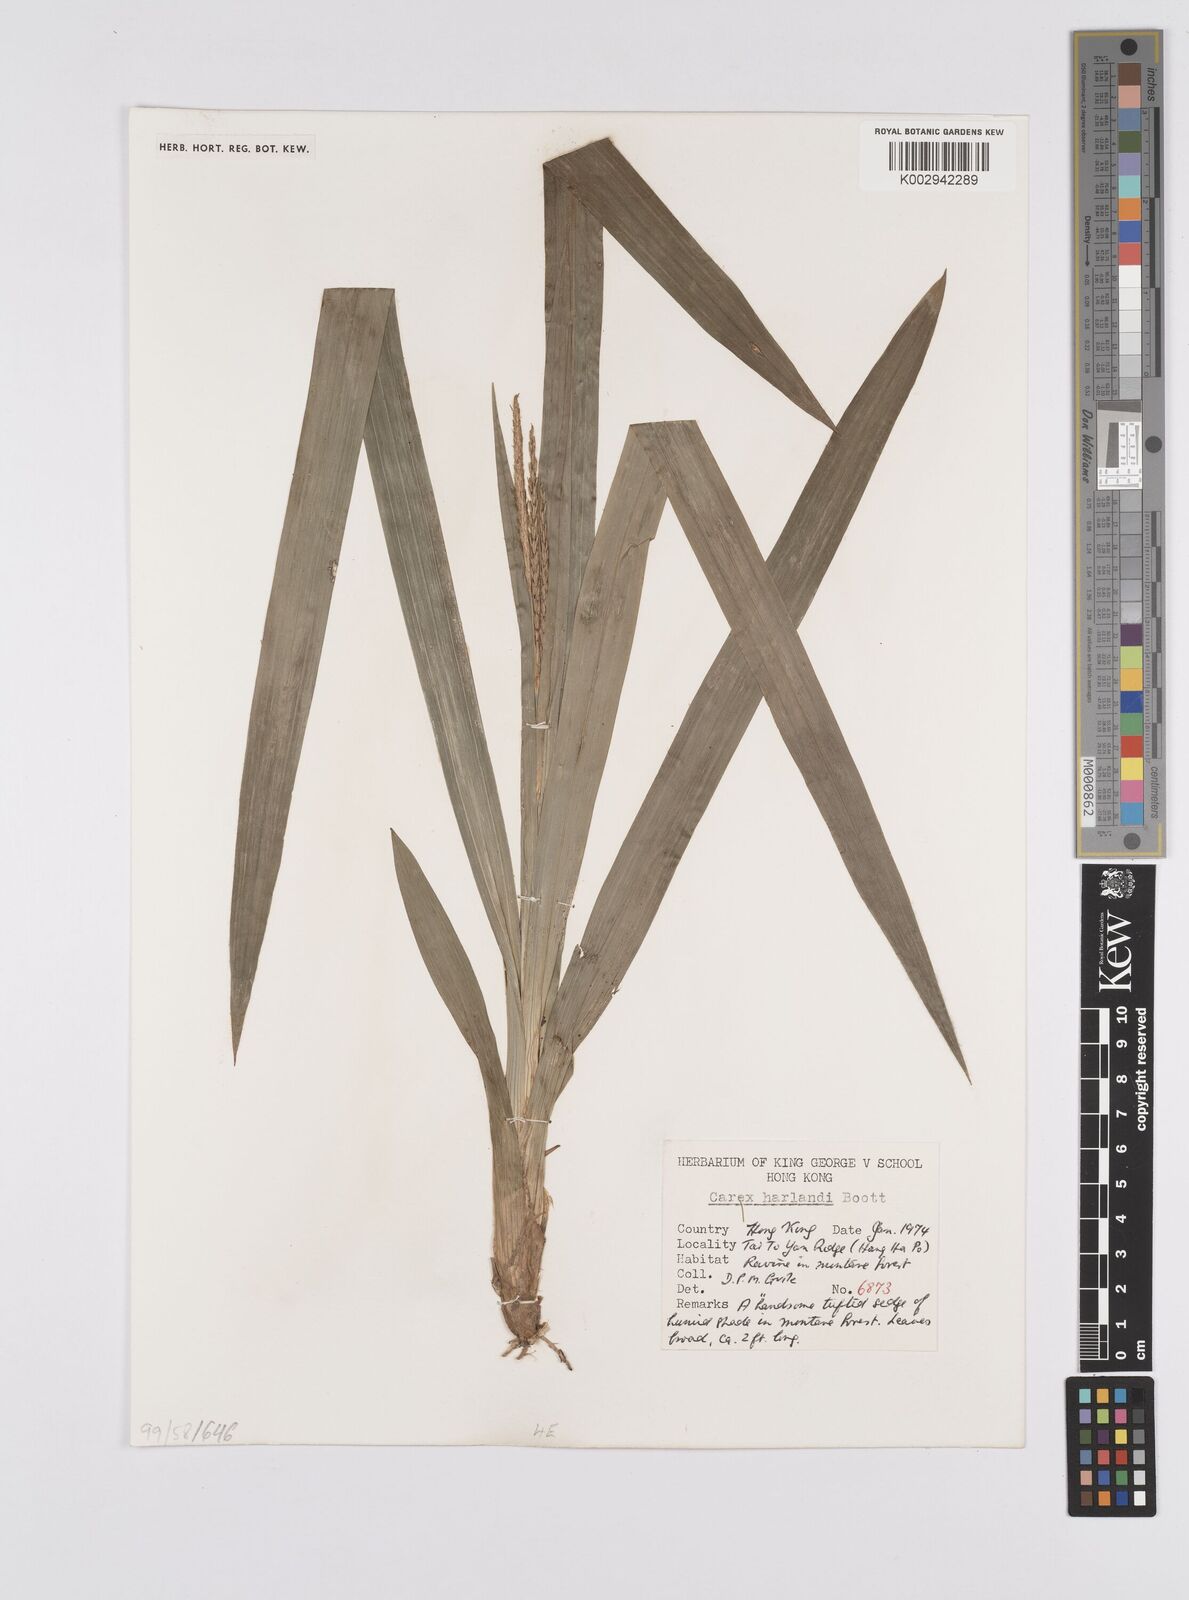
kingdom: Plantae
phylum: Tracheophyta
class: Liliopsida
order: Poales
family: Cyperaceae
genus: Carex
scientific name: Carex harlandii
